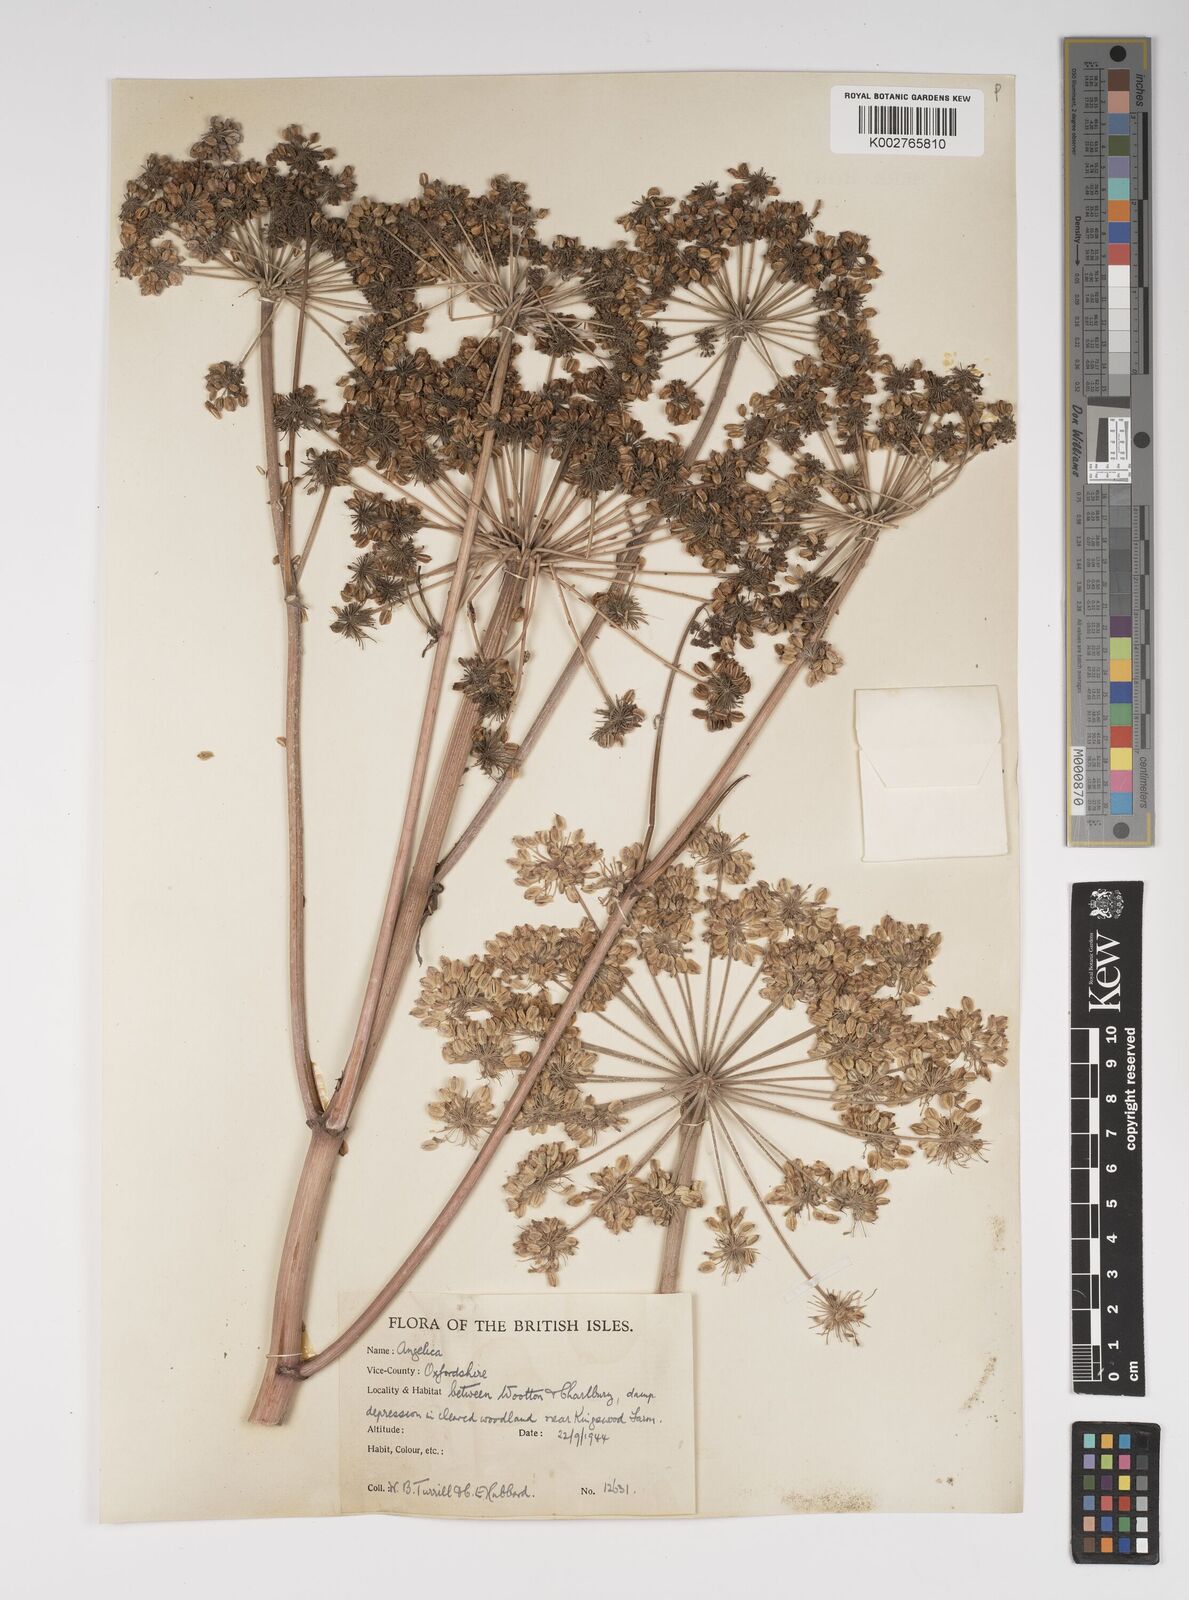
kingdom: Plantae
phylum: Tracheophyta
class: Magnoliopsida
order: Apiales
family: Apiaceae
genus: Angelica
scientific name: Angelica sylvestris
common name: Wild angelica
